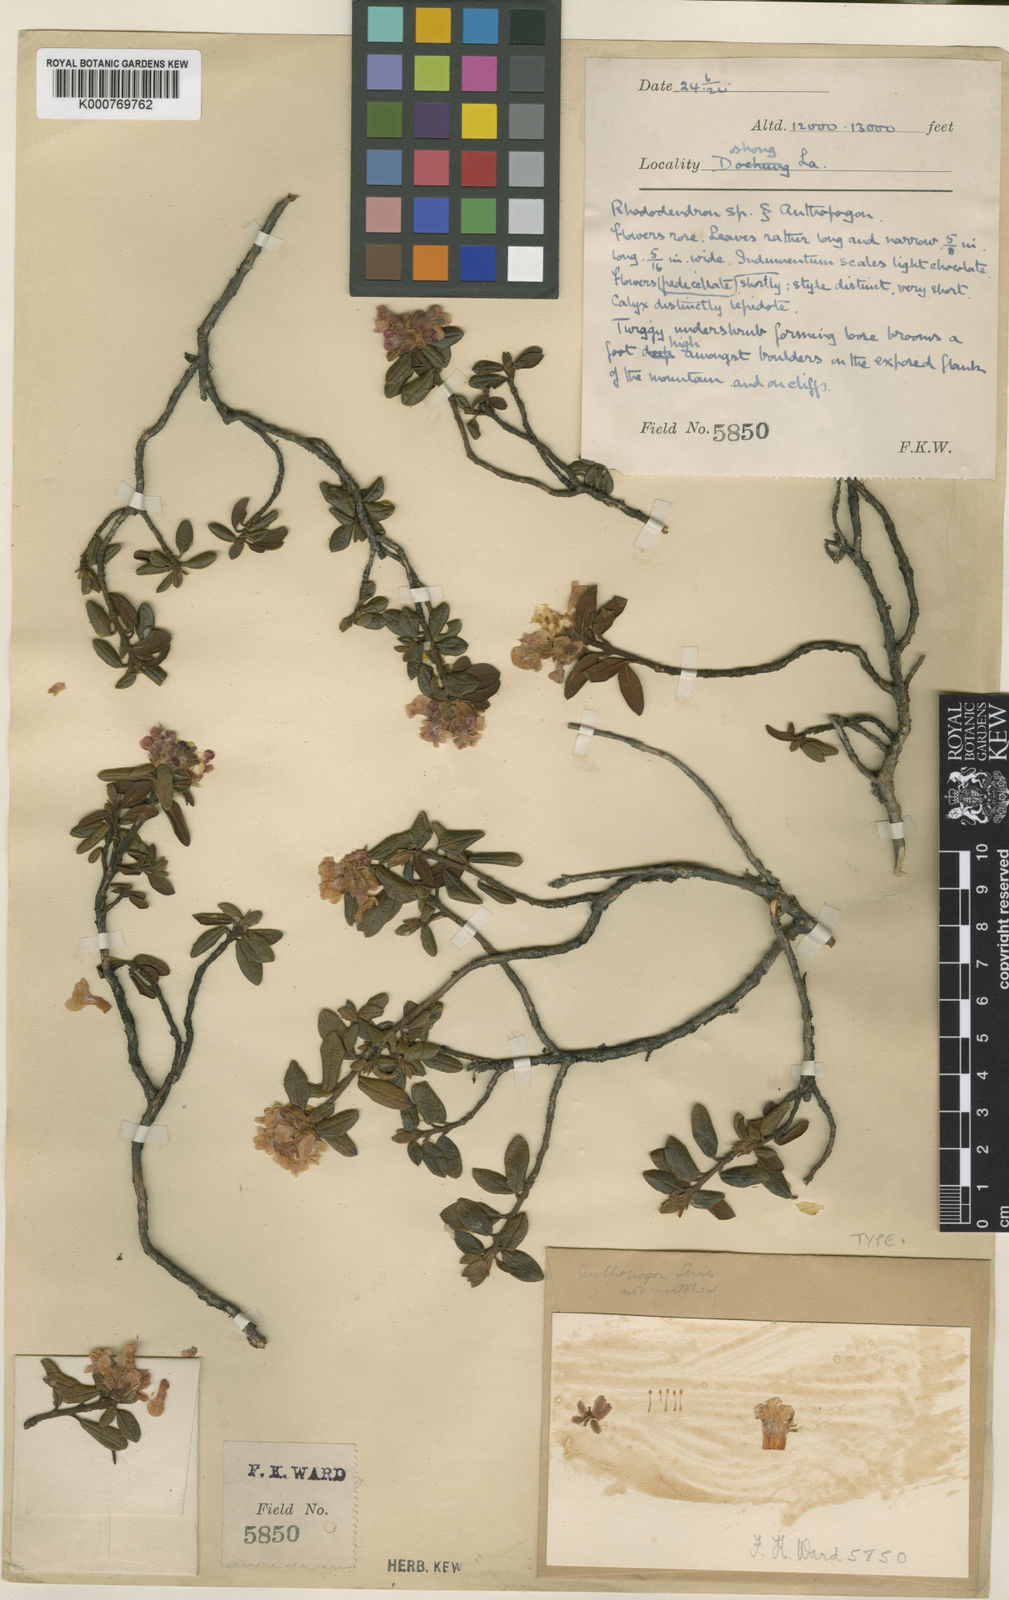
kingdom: Plantae
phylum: Tracheophyta
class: Magnoliopsida
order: Ericales
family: Ericaceae
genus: Rhododendron
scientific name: Rhododendron
